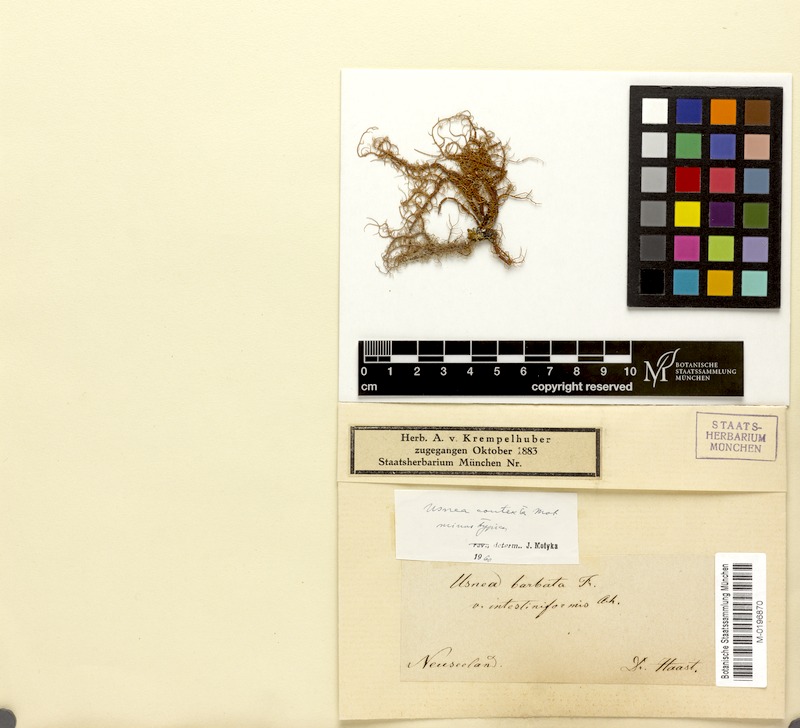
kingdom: Fungi
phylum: Ascomycota
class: Lecanoromycetes
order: Lecanorales
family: Parmeliaceae
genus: Usnea
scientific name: Usnea contexta
